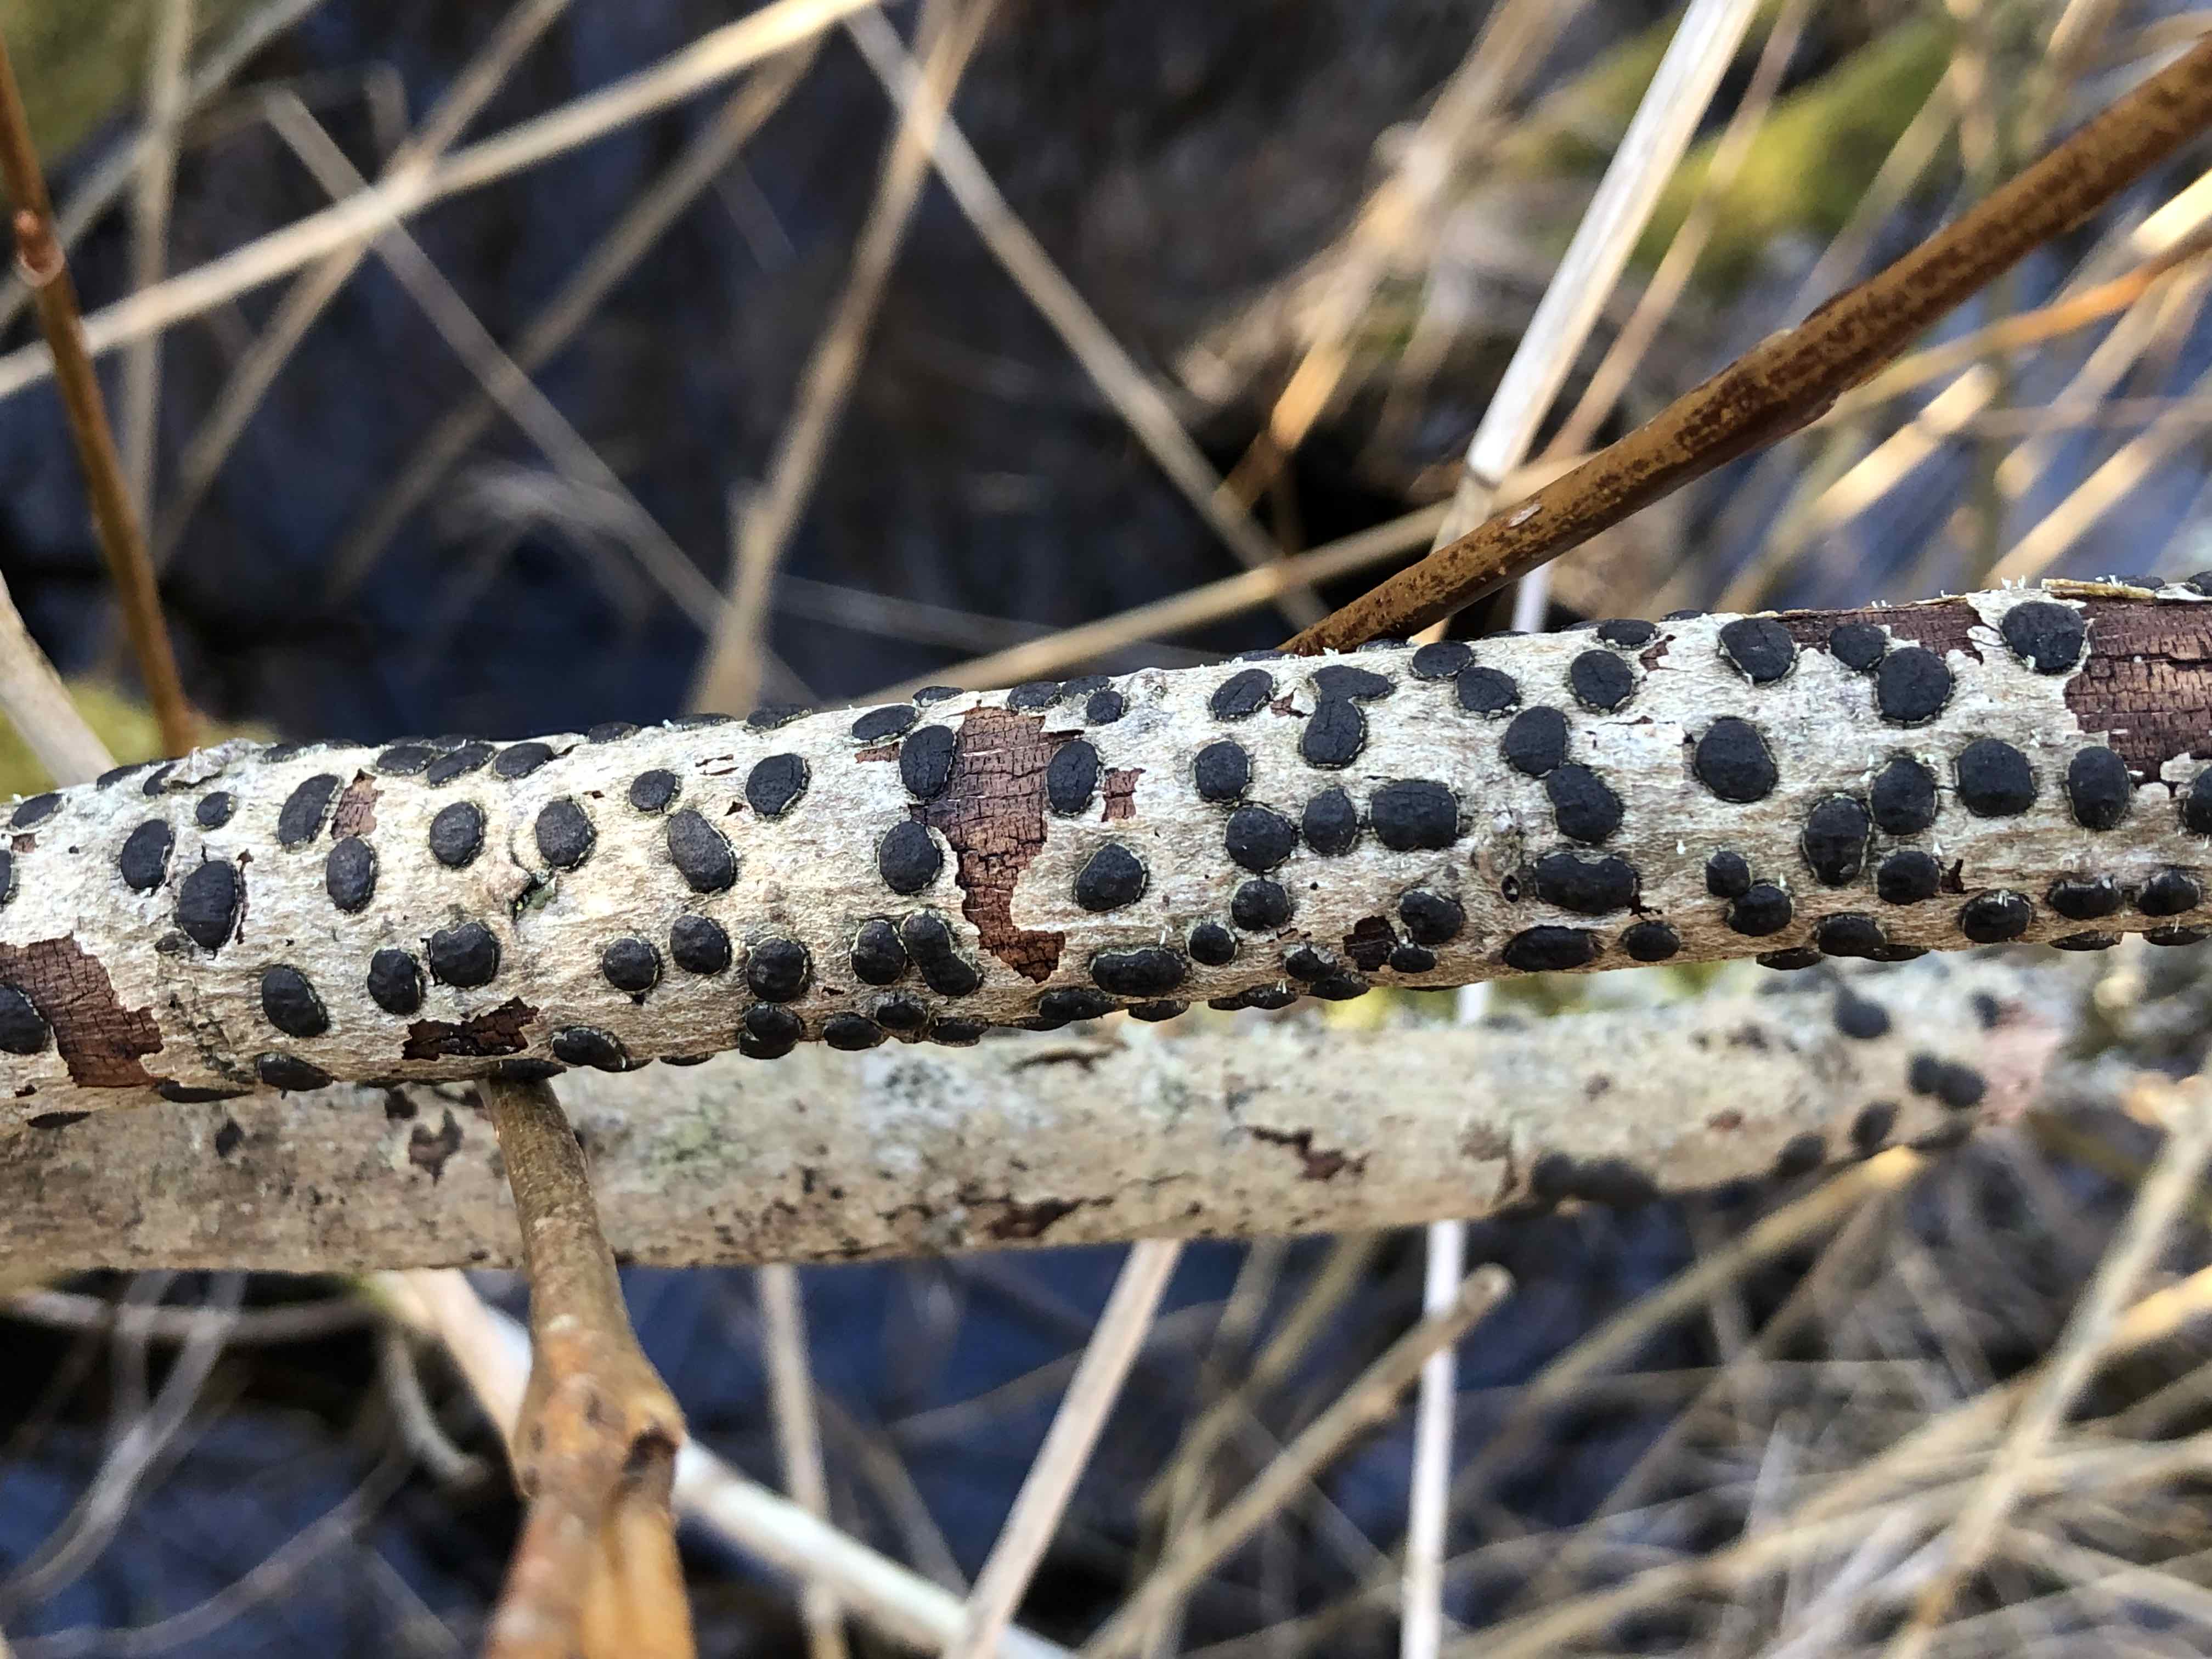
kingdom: Fungi
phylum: Ascomycota
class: Sordariomycetes
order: Xylariales
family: Diatrypaceae
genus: Diatrype
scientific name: Diatrype bullata
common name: pile-kulskorpe
